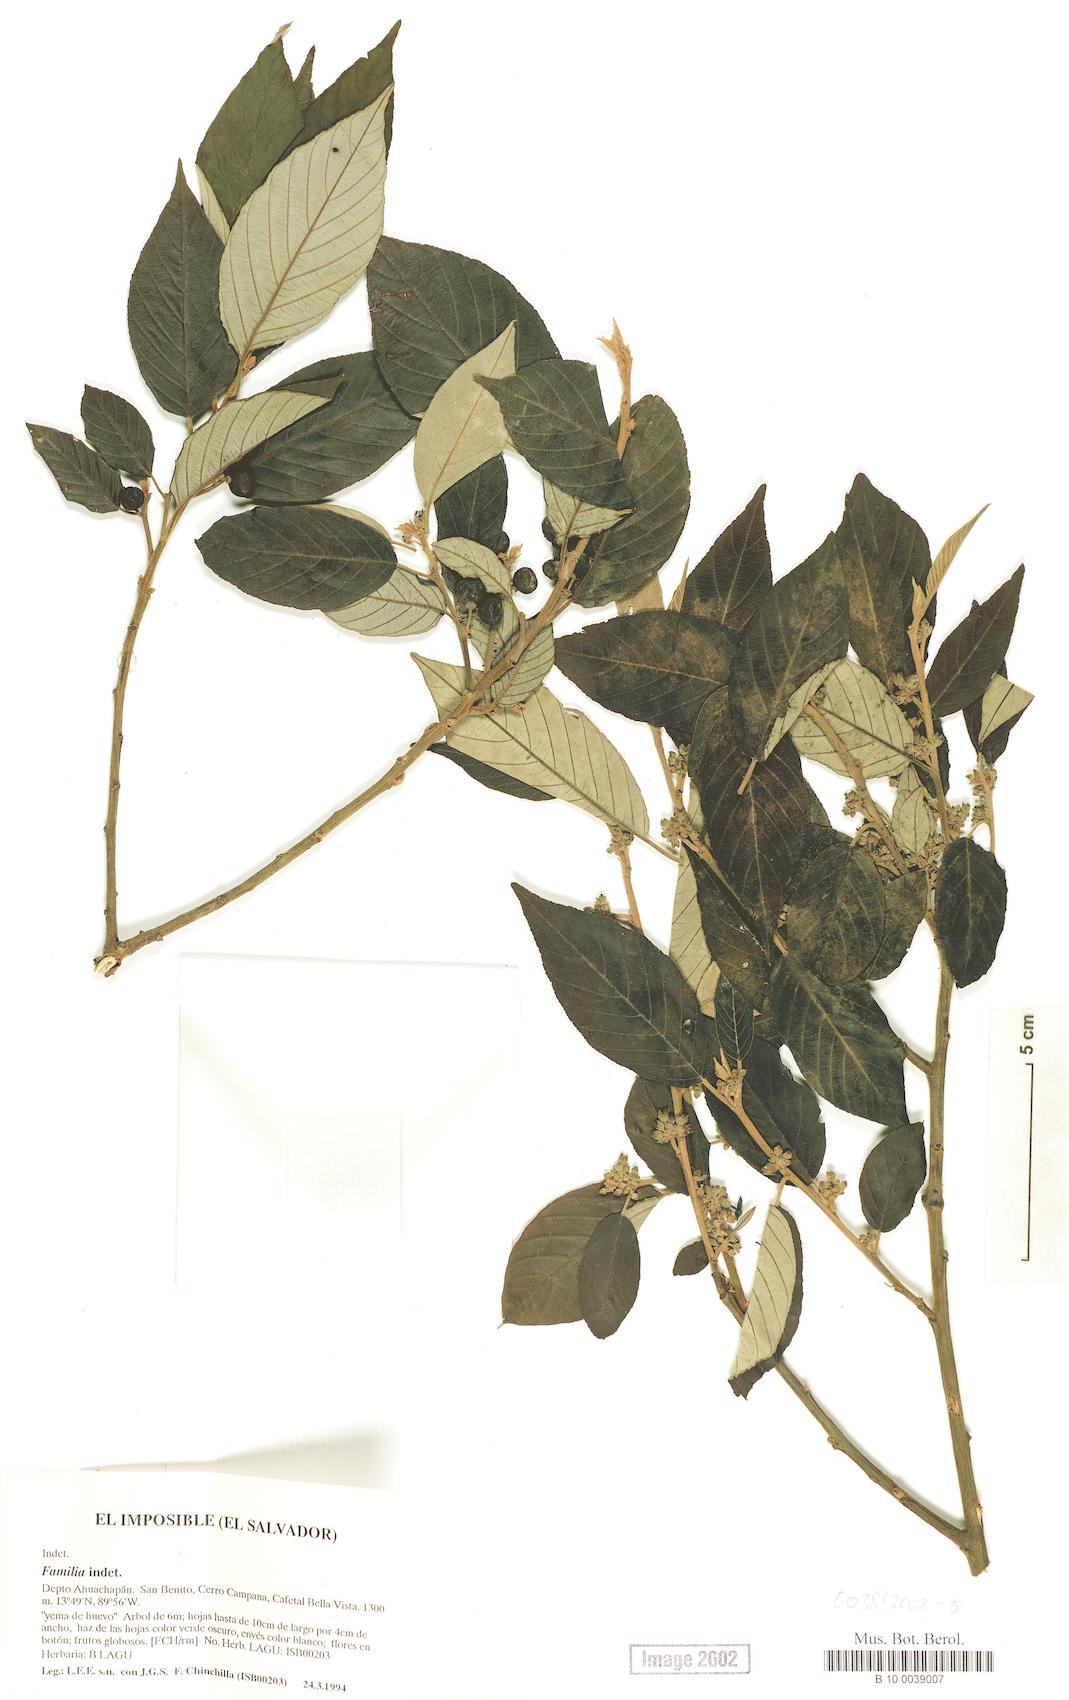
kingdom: Plantae
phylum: Tracheophyta
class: Magnoliopsida
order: Rosales
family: Rhamnaceae
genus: Frangula
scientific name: Frangula discolor
